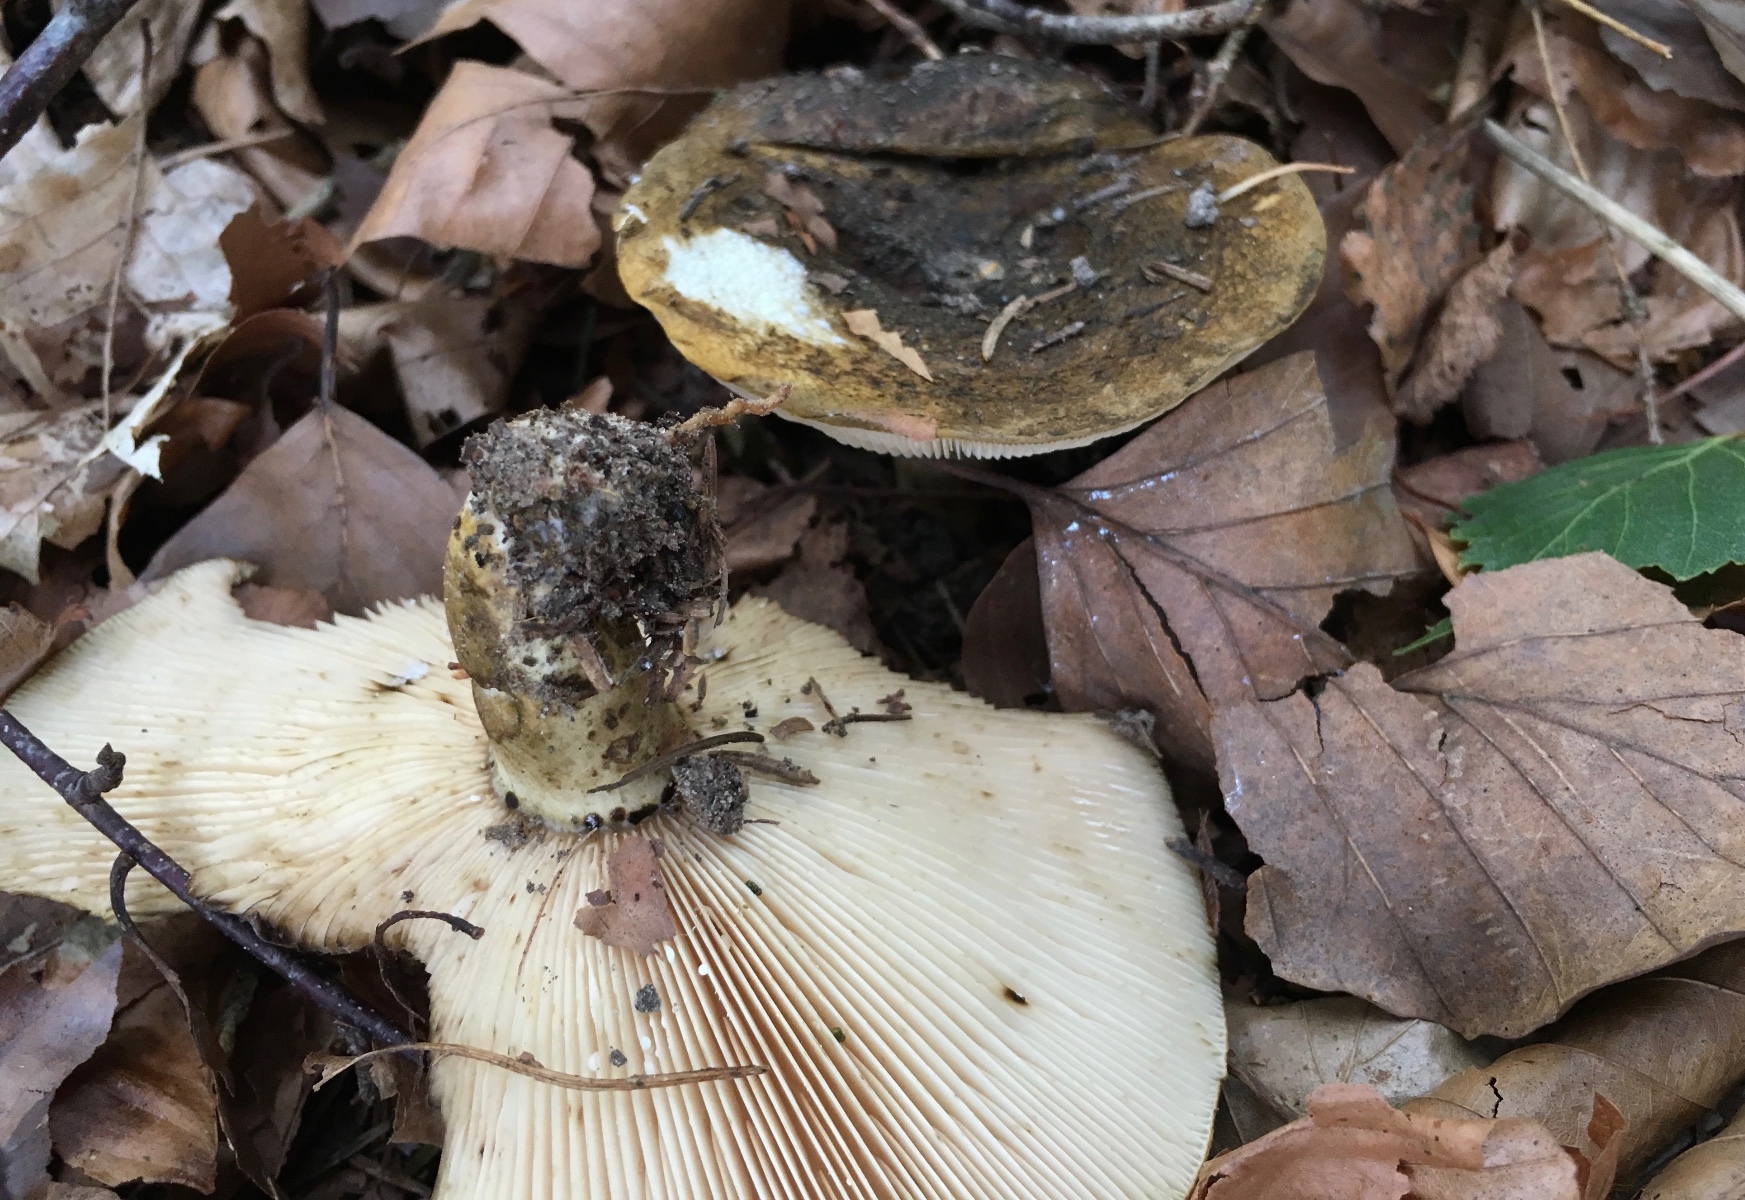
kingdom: Fungi
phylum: Basidiomycota
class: Agaricomycetes
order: Russulales
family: Russulaceae
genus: Lactarius
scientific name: Lactarius necator
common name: manddraber-mælkehat
